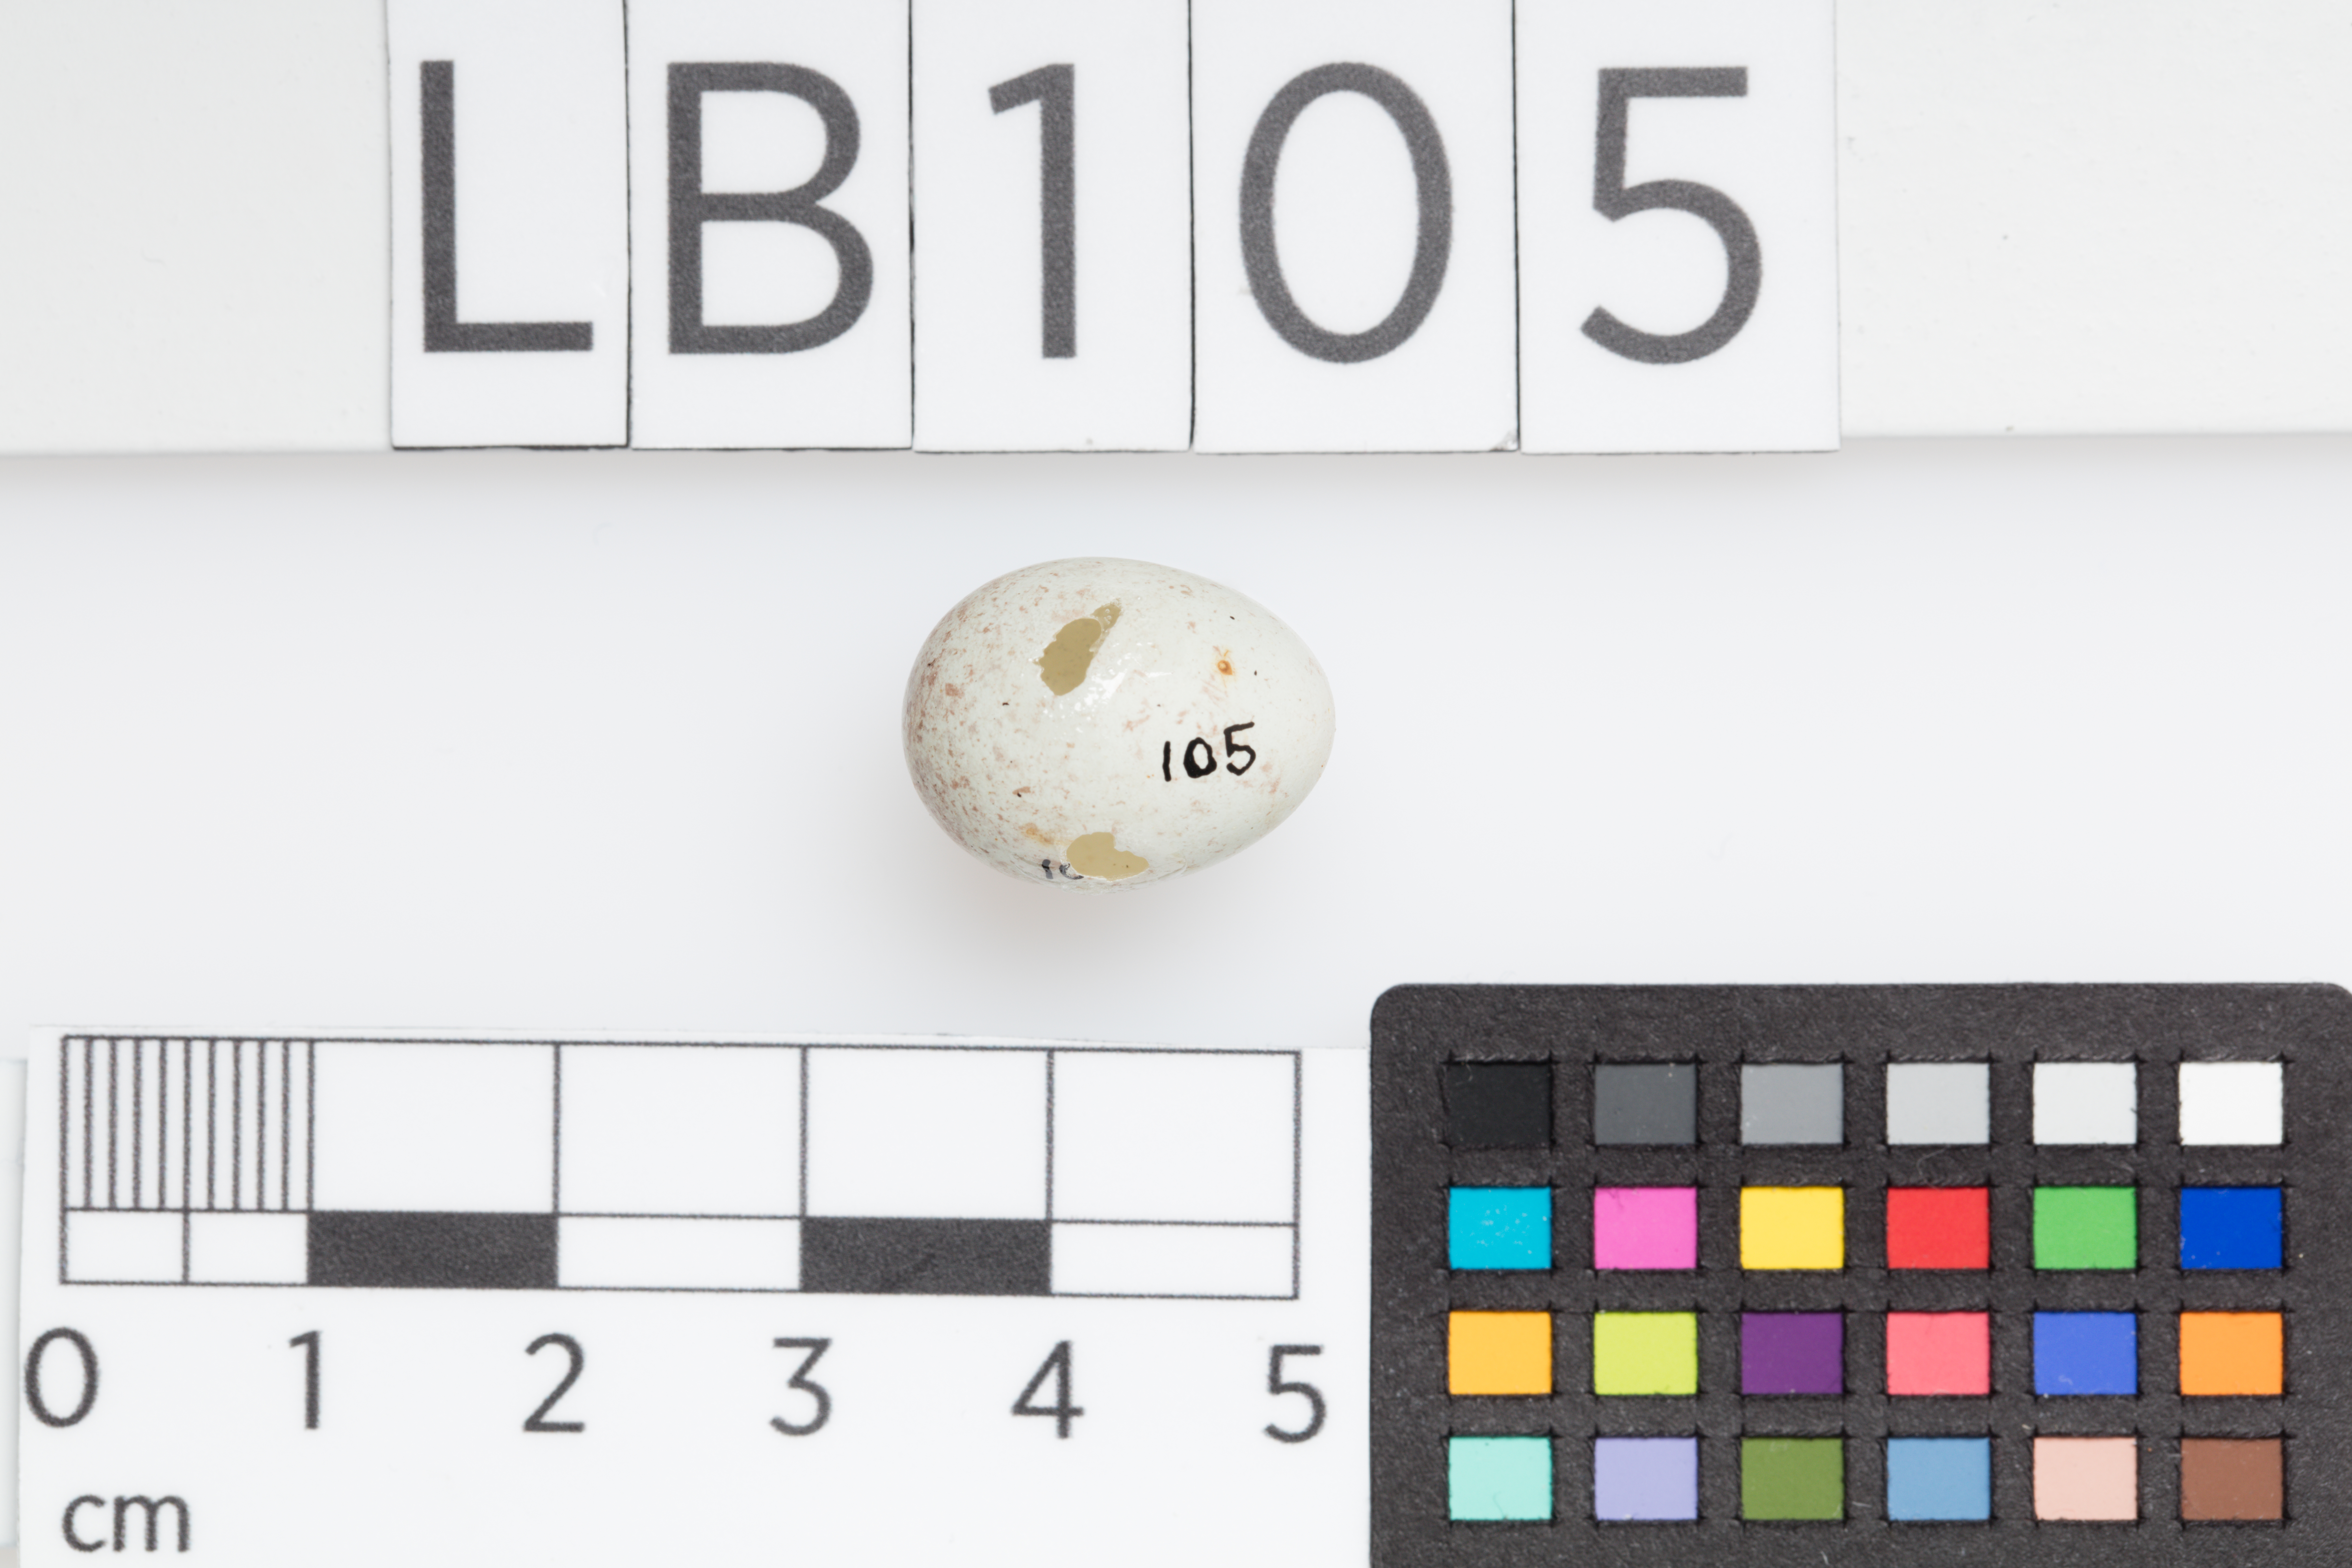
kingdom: Animalia
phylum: Chordata
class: Aves
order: Passeriformes
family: Fringillidae
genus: Acanthis
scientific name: Acanthis flammea
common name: Common redpoll
